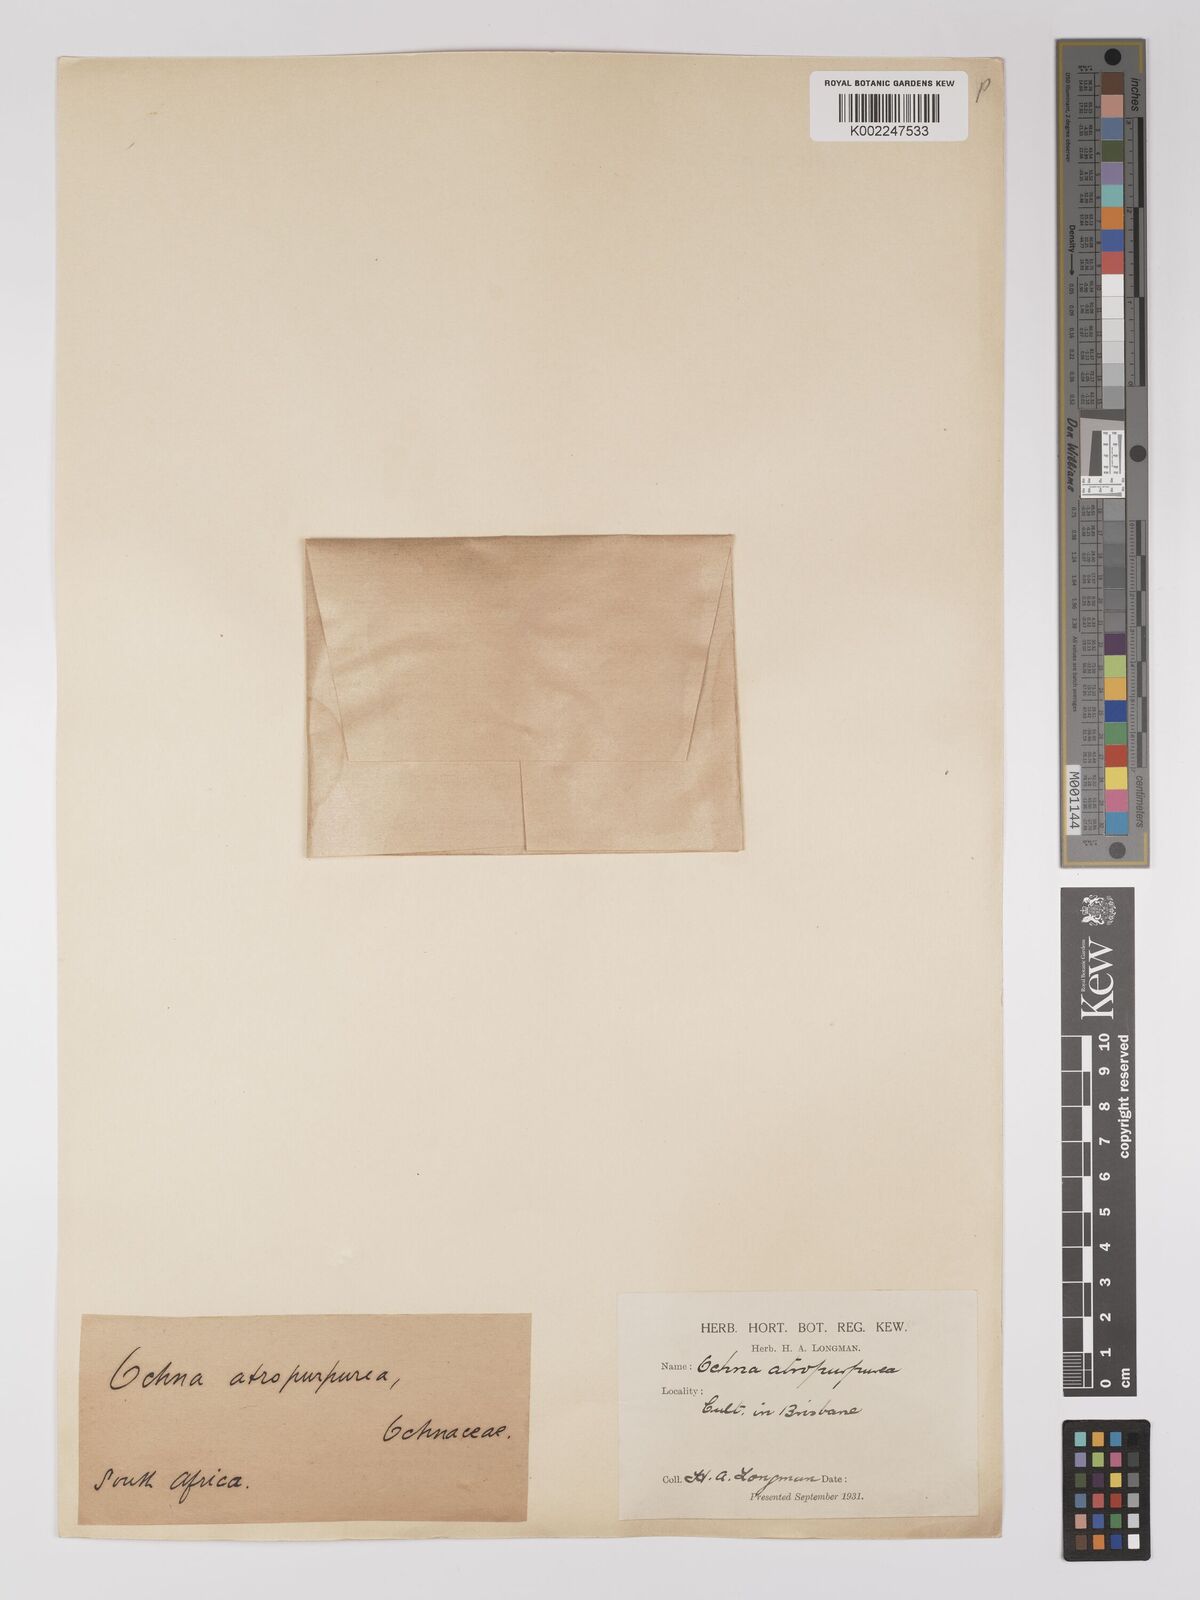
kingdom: Plantae
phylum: Tracheophyta
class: Magnoliopsida
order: Malpighiales
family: Ochnaceae
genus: Ochna
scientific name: Ochna atropurpurea
